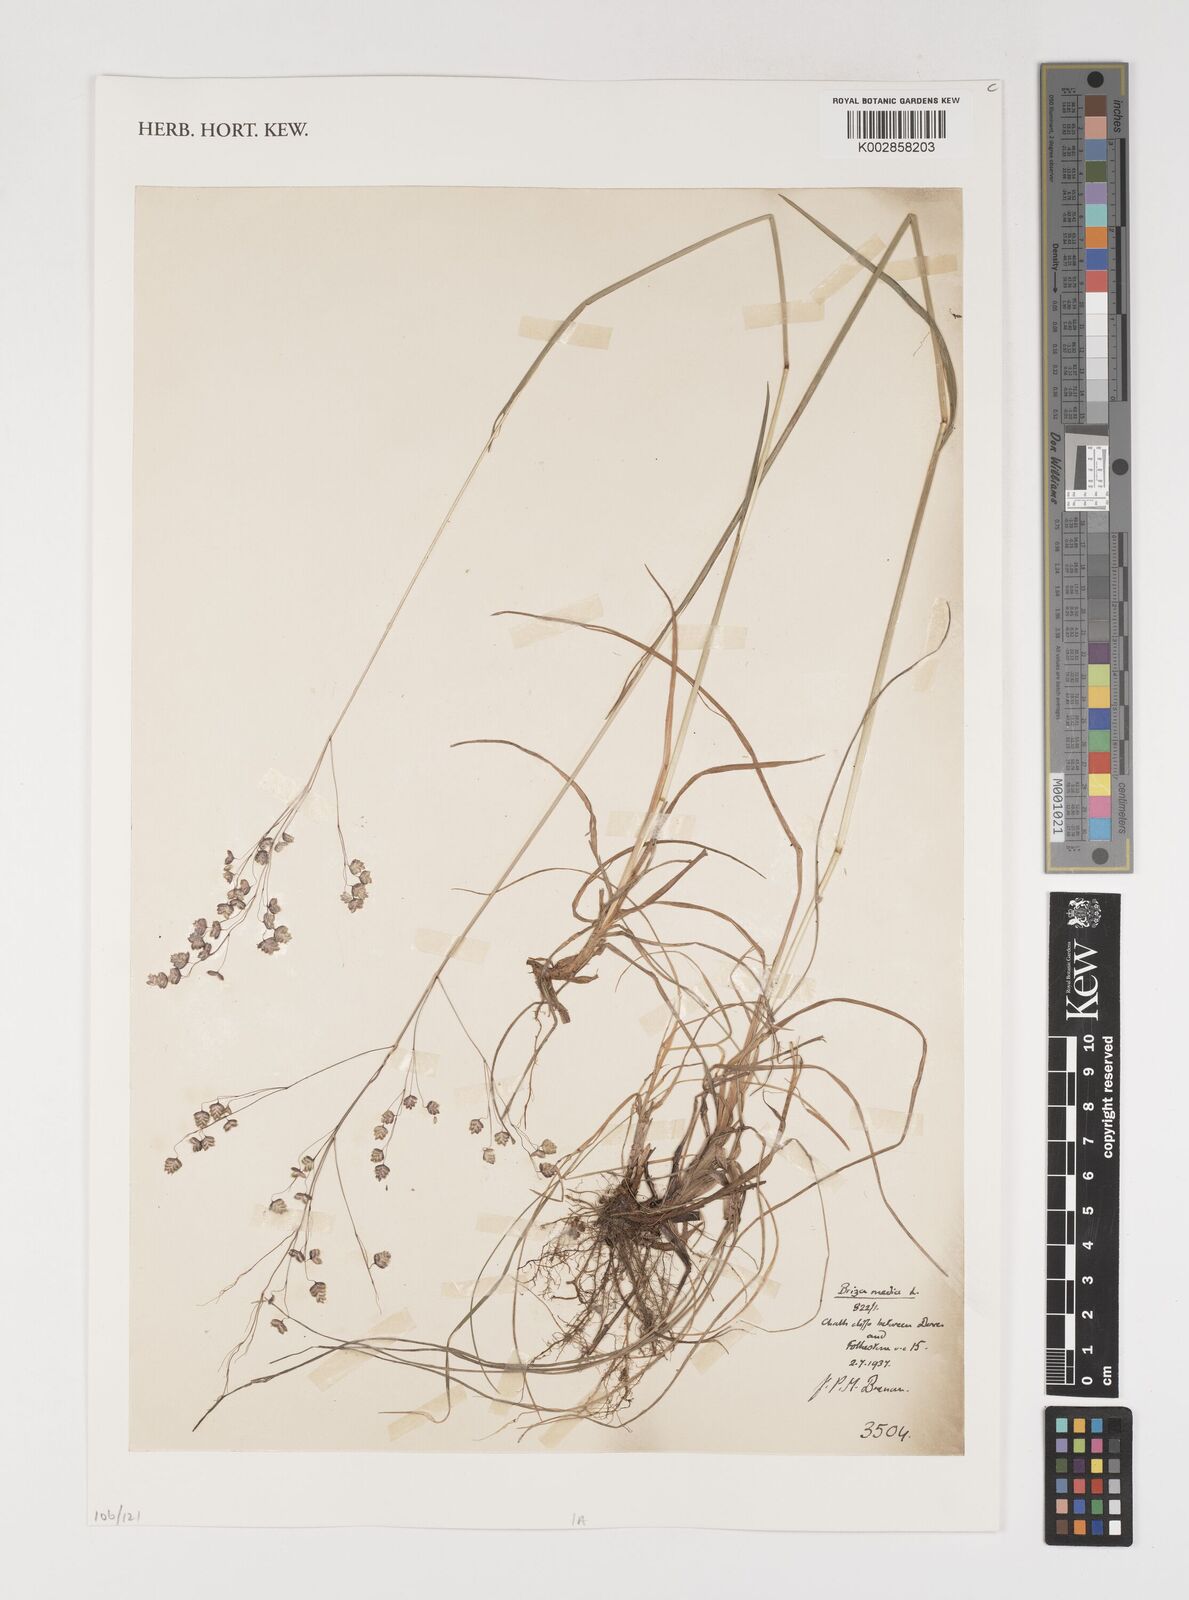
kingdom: Plantae
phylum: Tracheophyta
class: Liliopsida
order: Poales
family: Poaceae
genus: Briza
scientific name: Briza media
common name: Quaking grass
